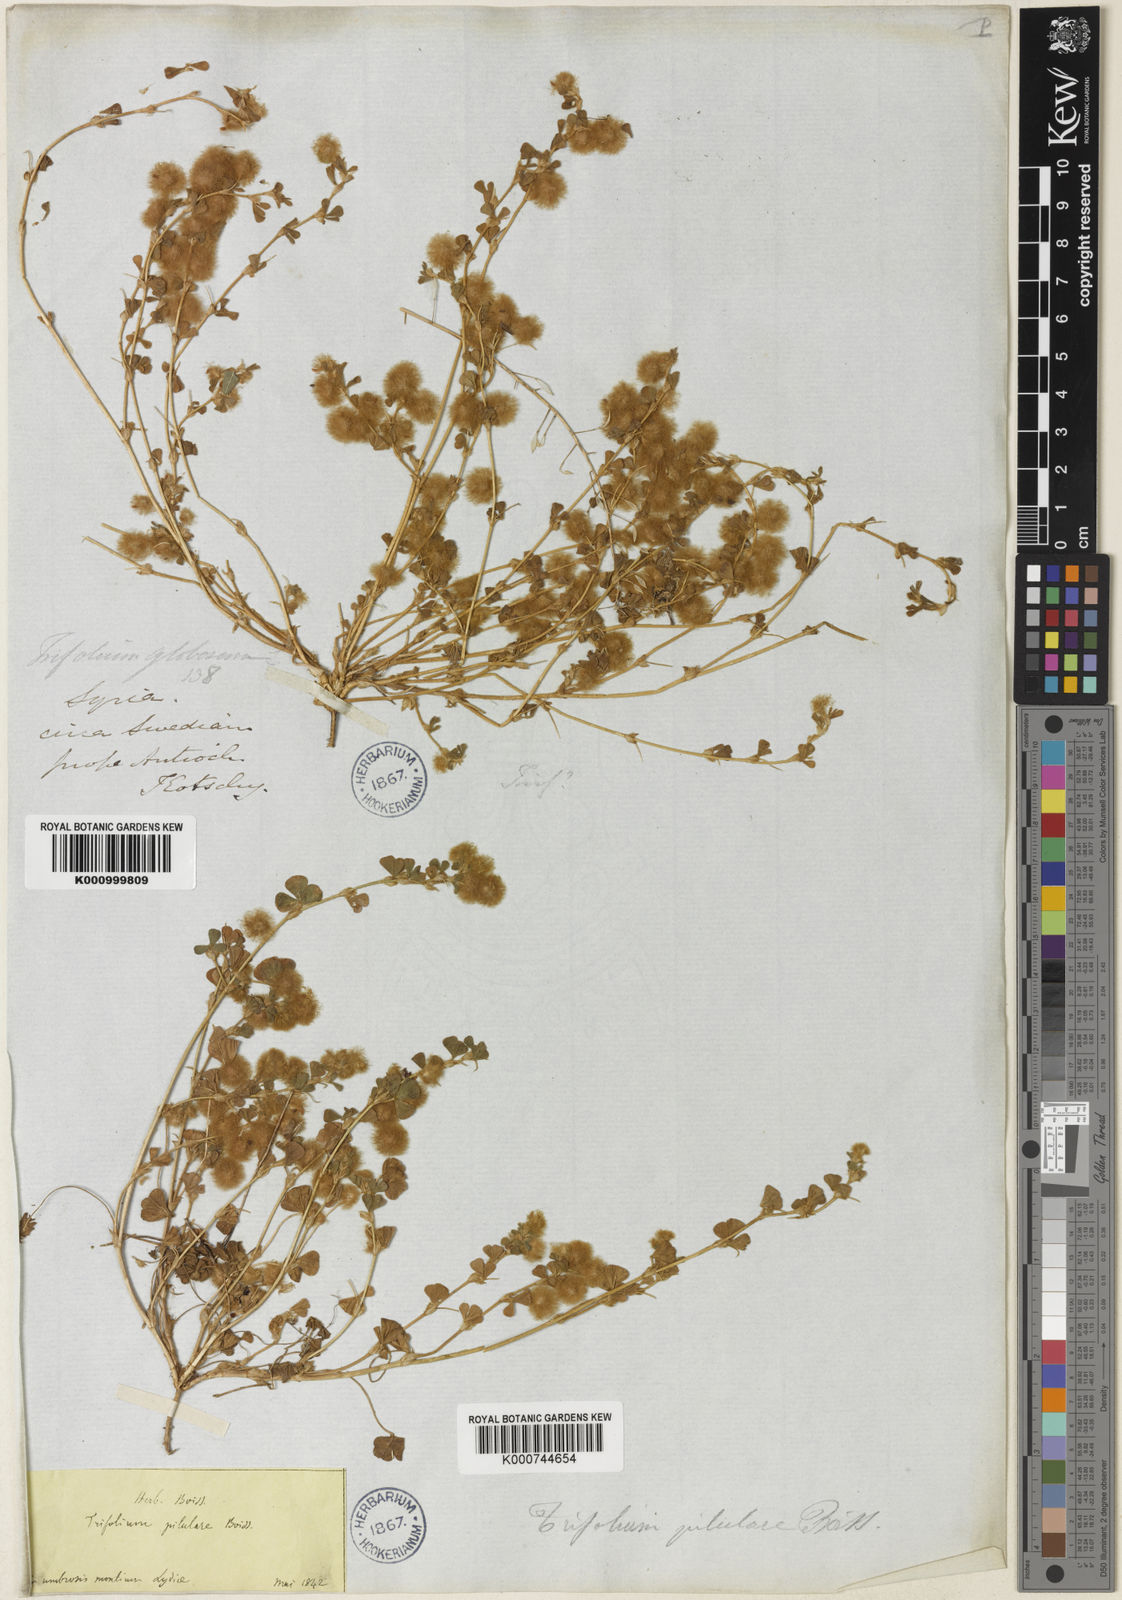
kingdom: Plantae
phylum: Tracheophyta
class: Magnoliopsida
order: Fabales
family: Fabaceae
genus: Trifolium
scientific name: Trifolium pilulare
